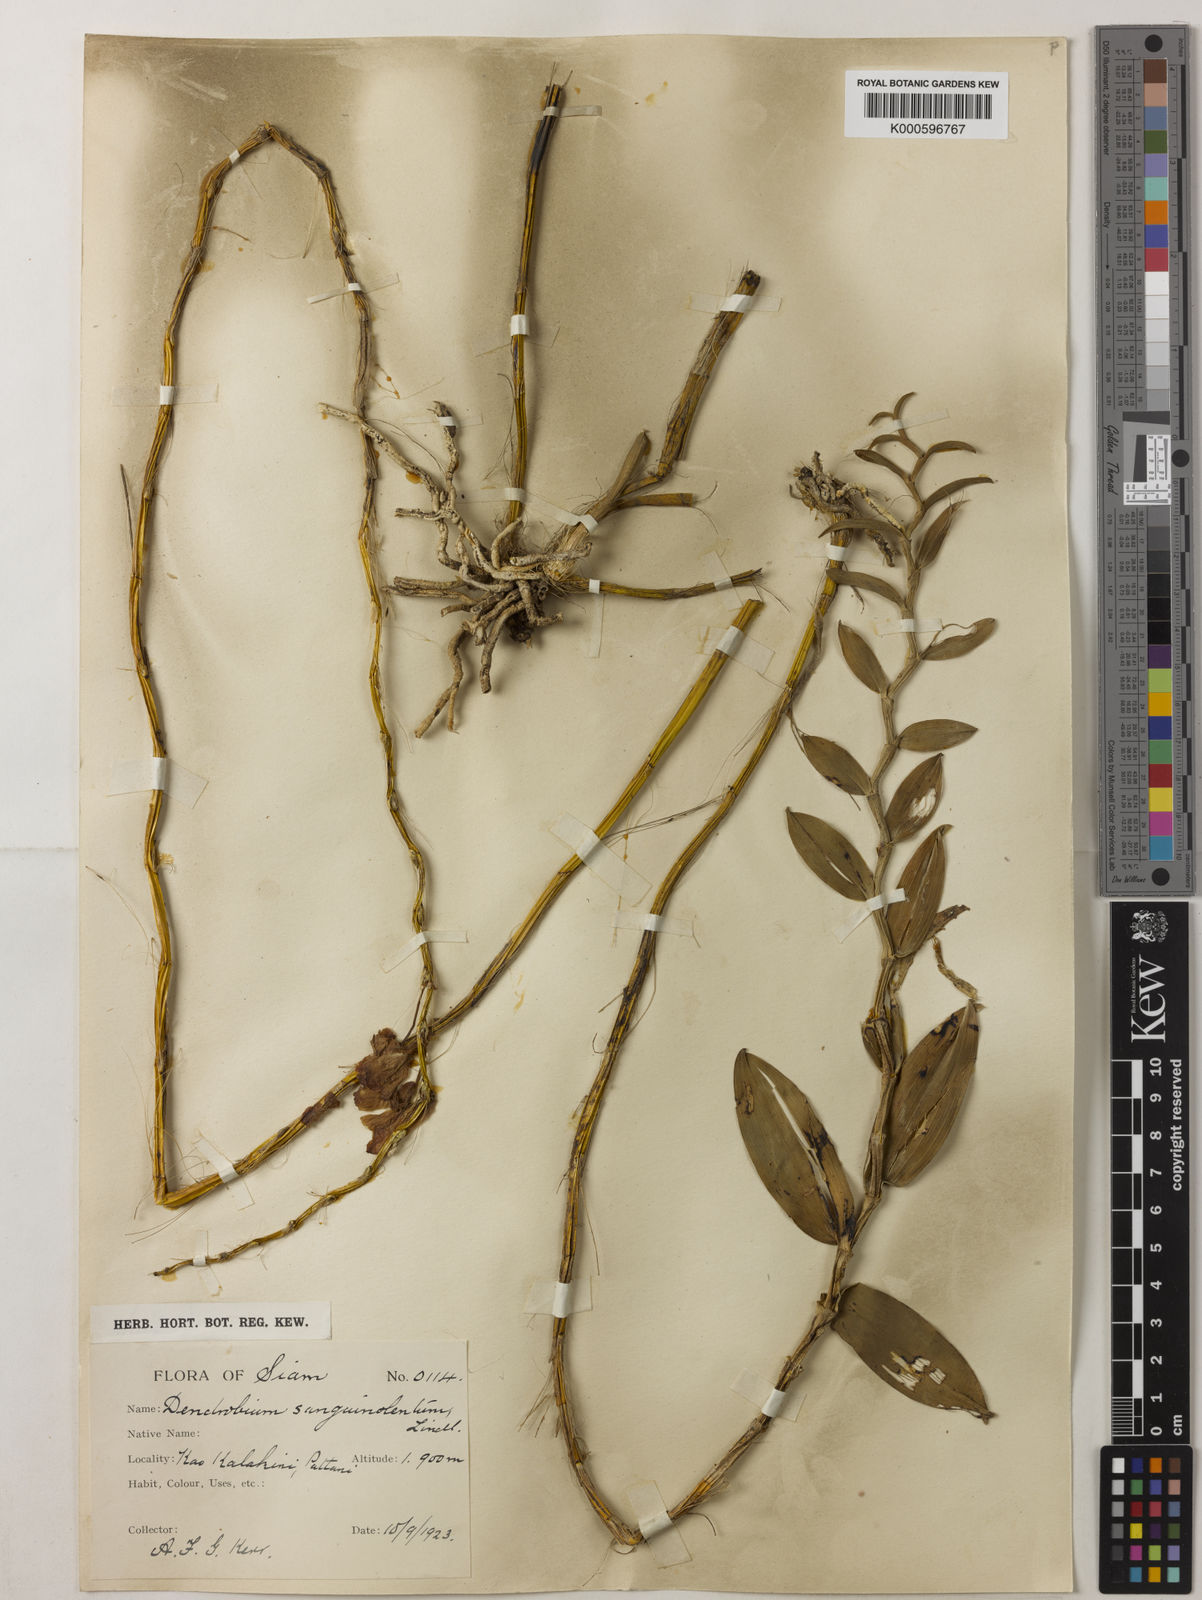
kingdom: Plantae
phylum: Tracheophyta
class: Liliopsida
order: Asparagales
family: Orchidaceae
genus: Dendrobium
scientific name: Dendrobium sanguinolentum
